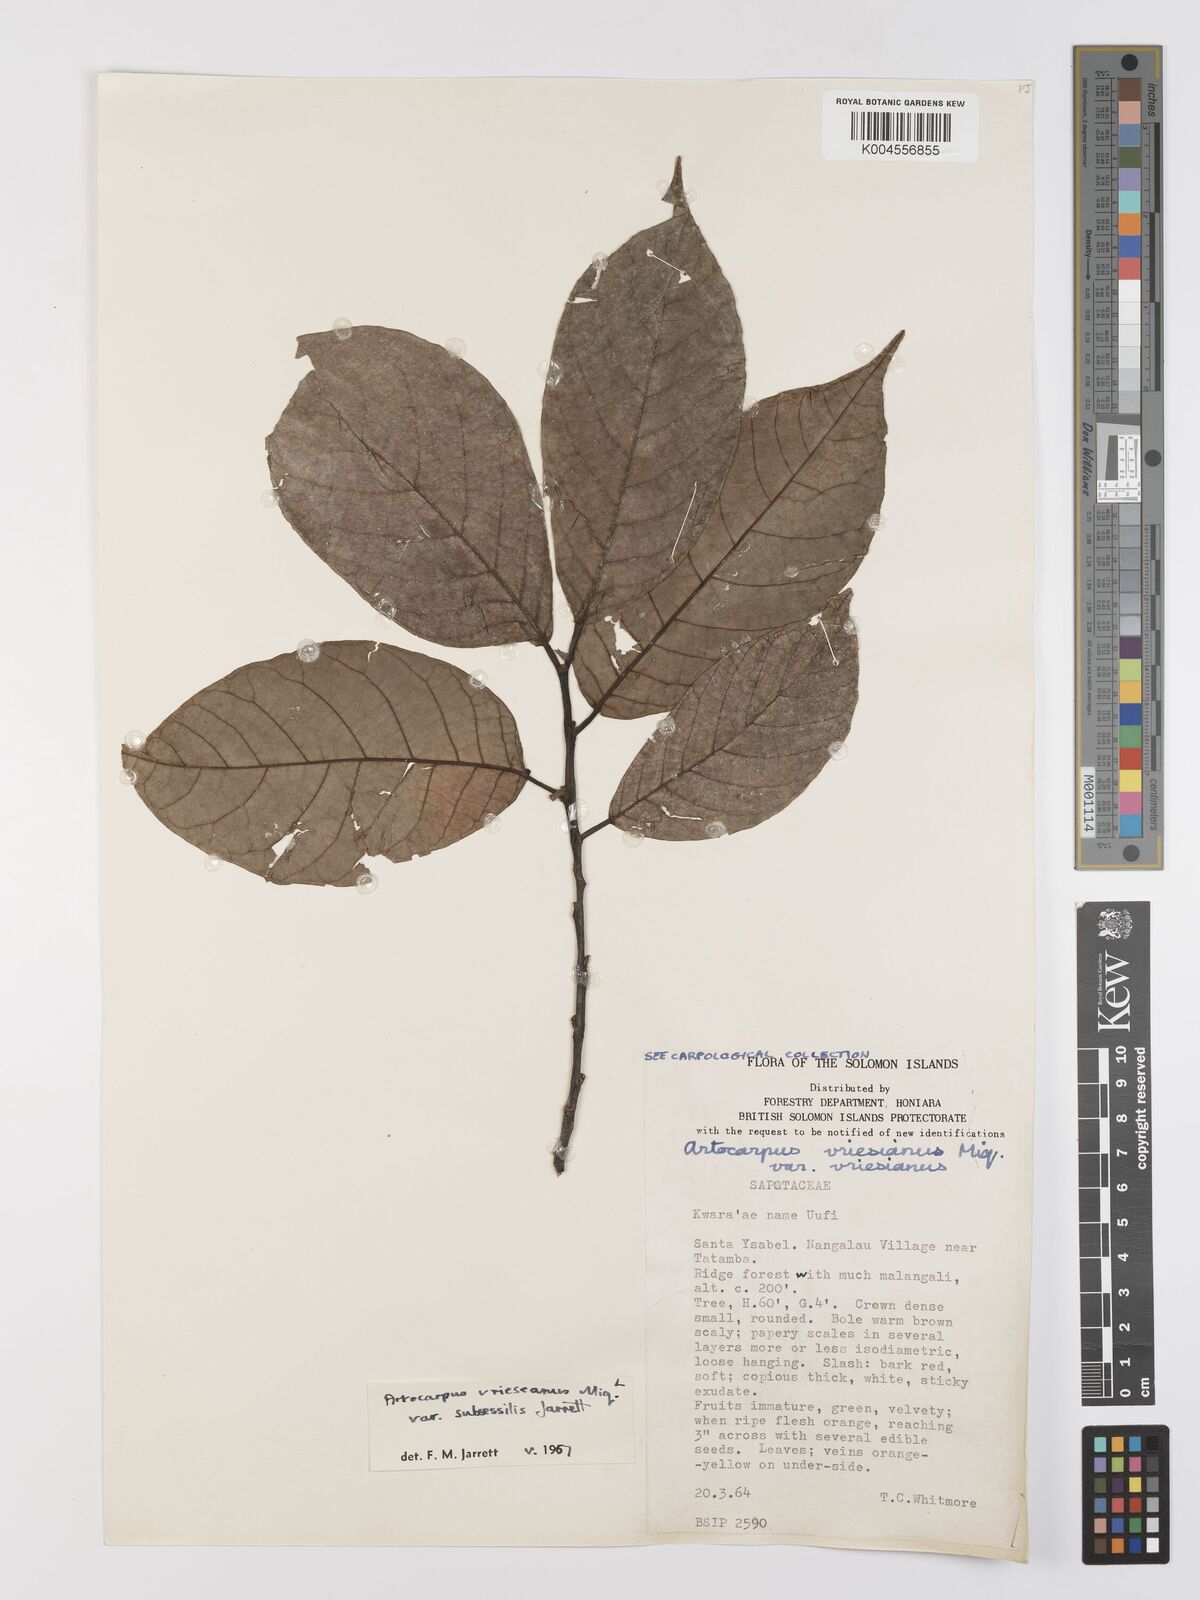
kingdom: Plantae
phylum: Tracheophyta
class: Magnoliopsida
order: Rosales
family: Moraceae
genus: Artocarpus
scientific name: Artocarpus vrieseanus
